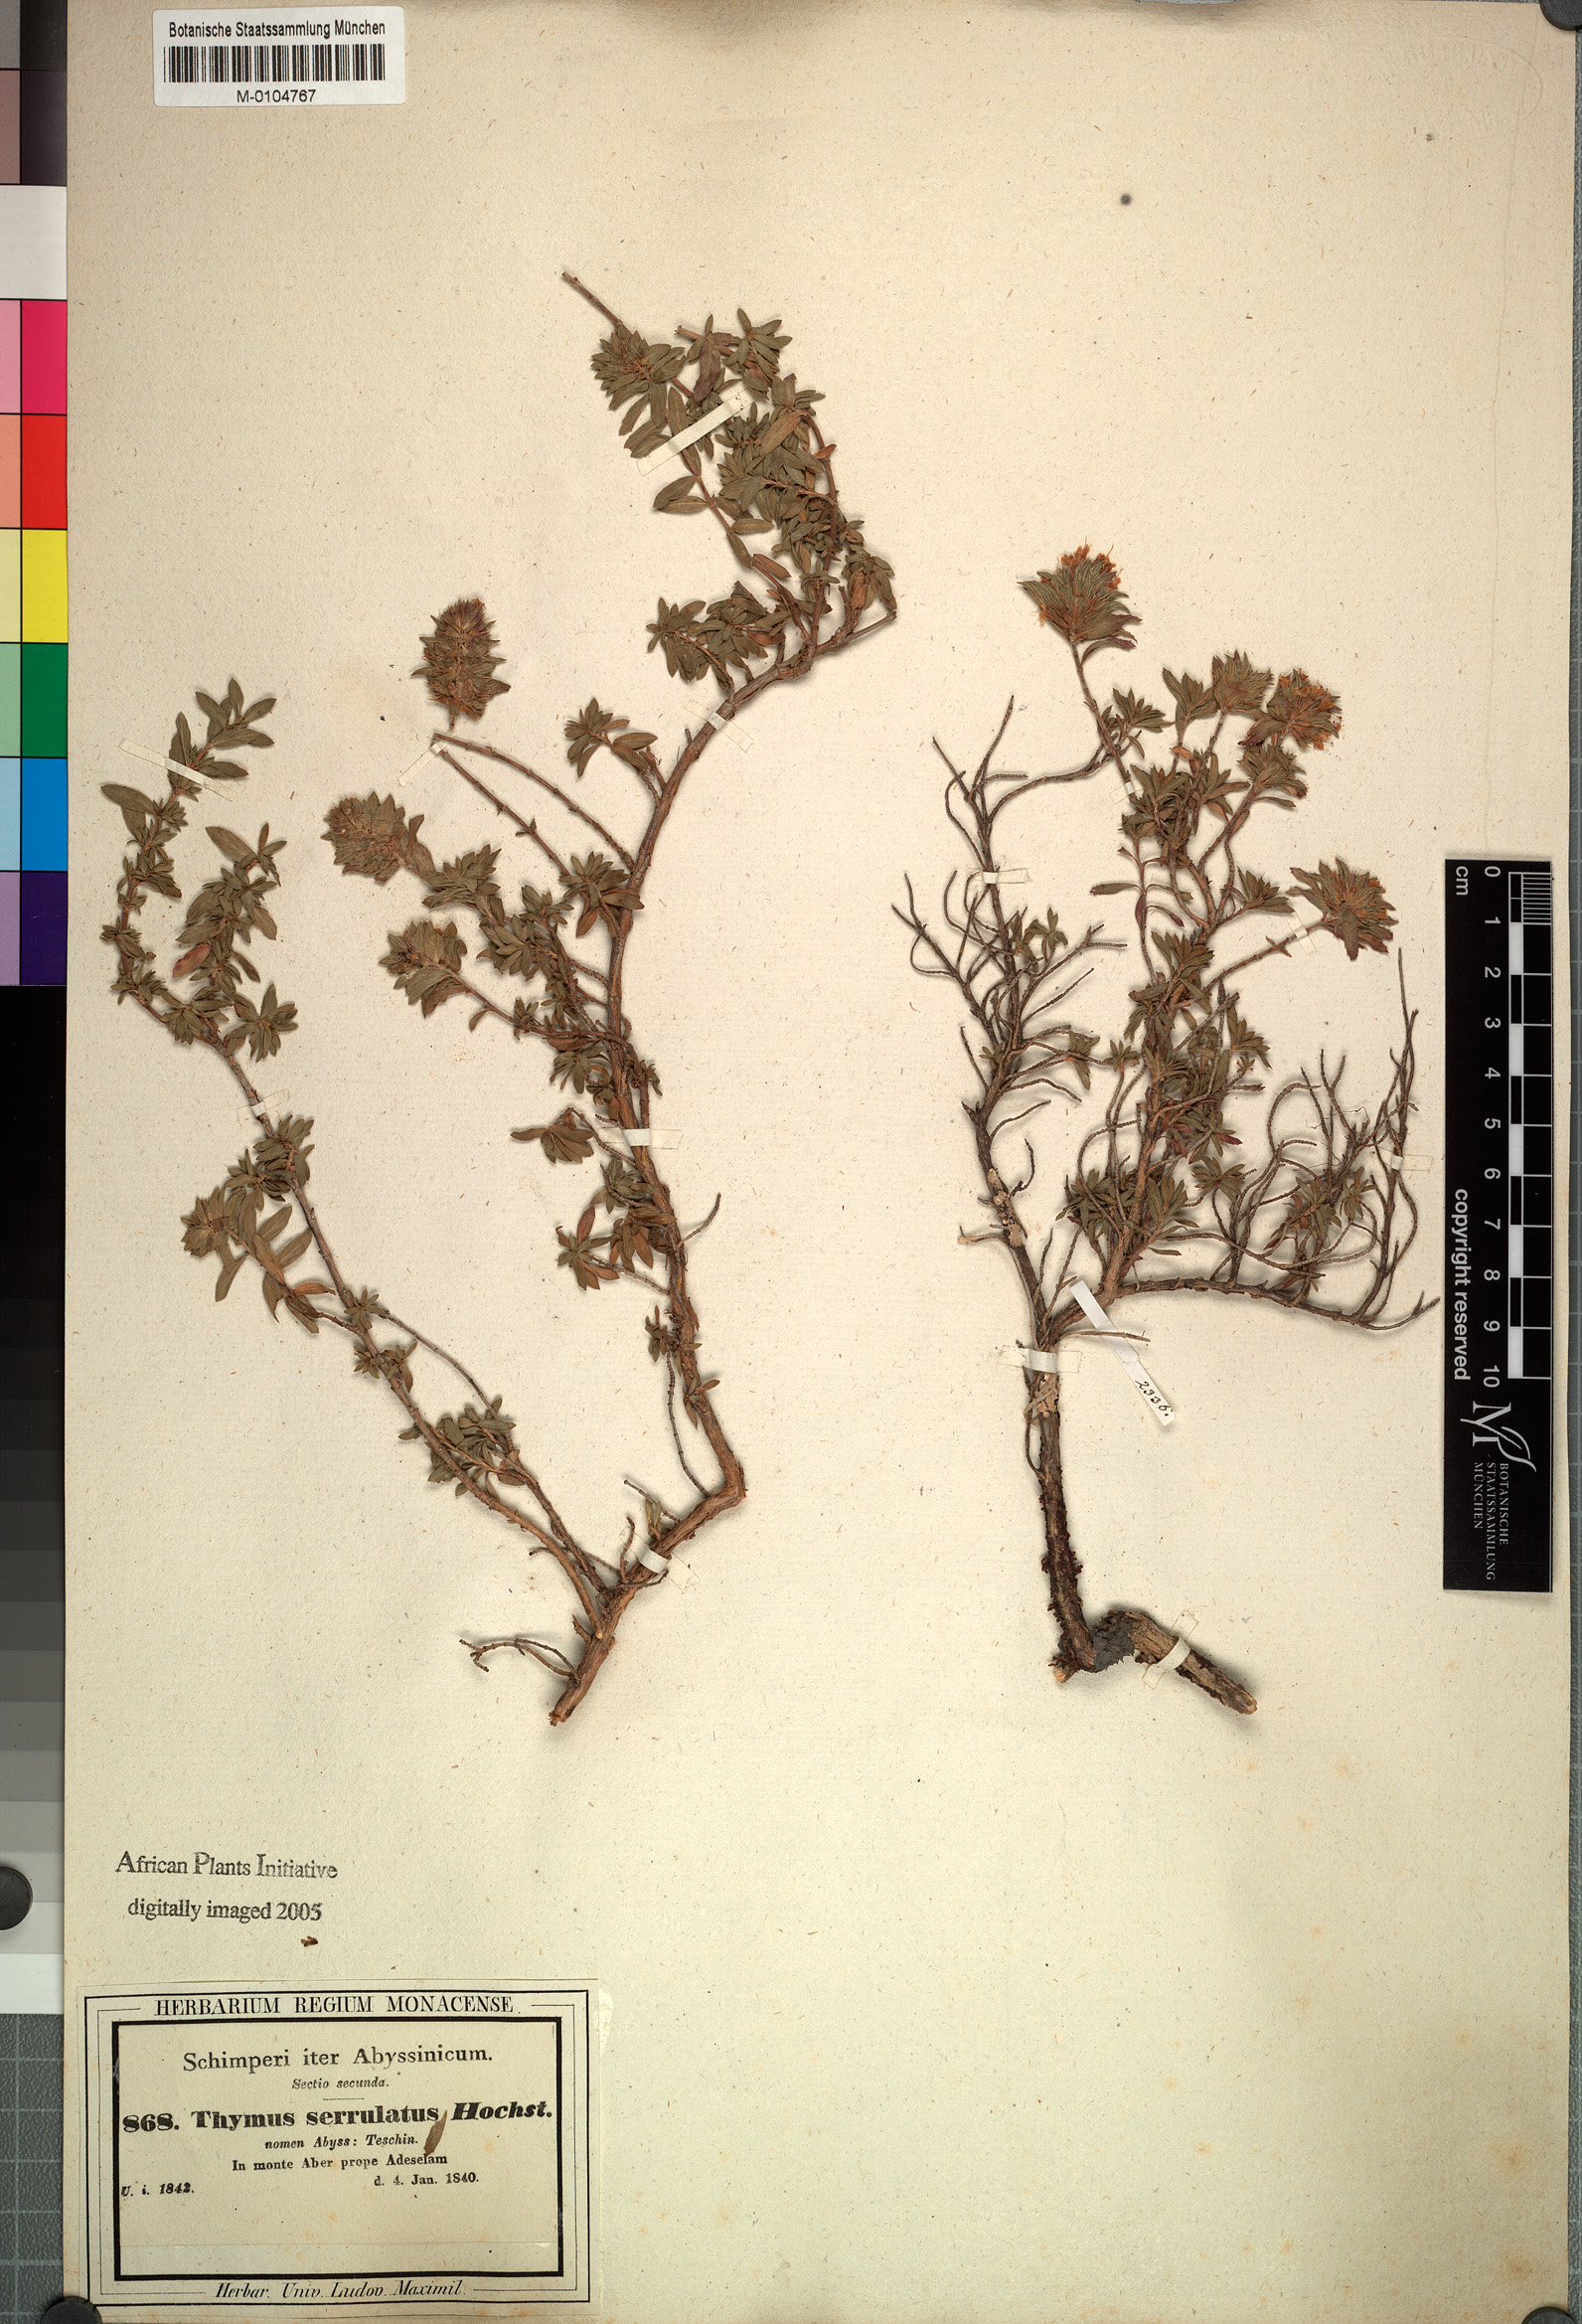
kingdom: Plantae
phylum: Tracheophyta
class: Magnoliopsida
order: Lamiales
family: Lamiaceae
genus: Thymus
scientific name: Thymus serrulatus
